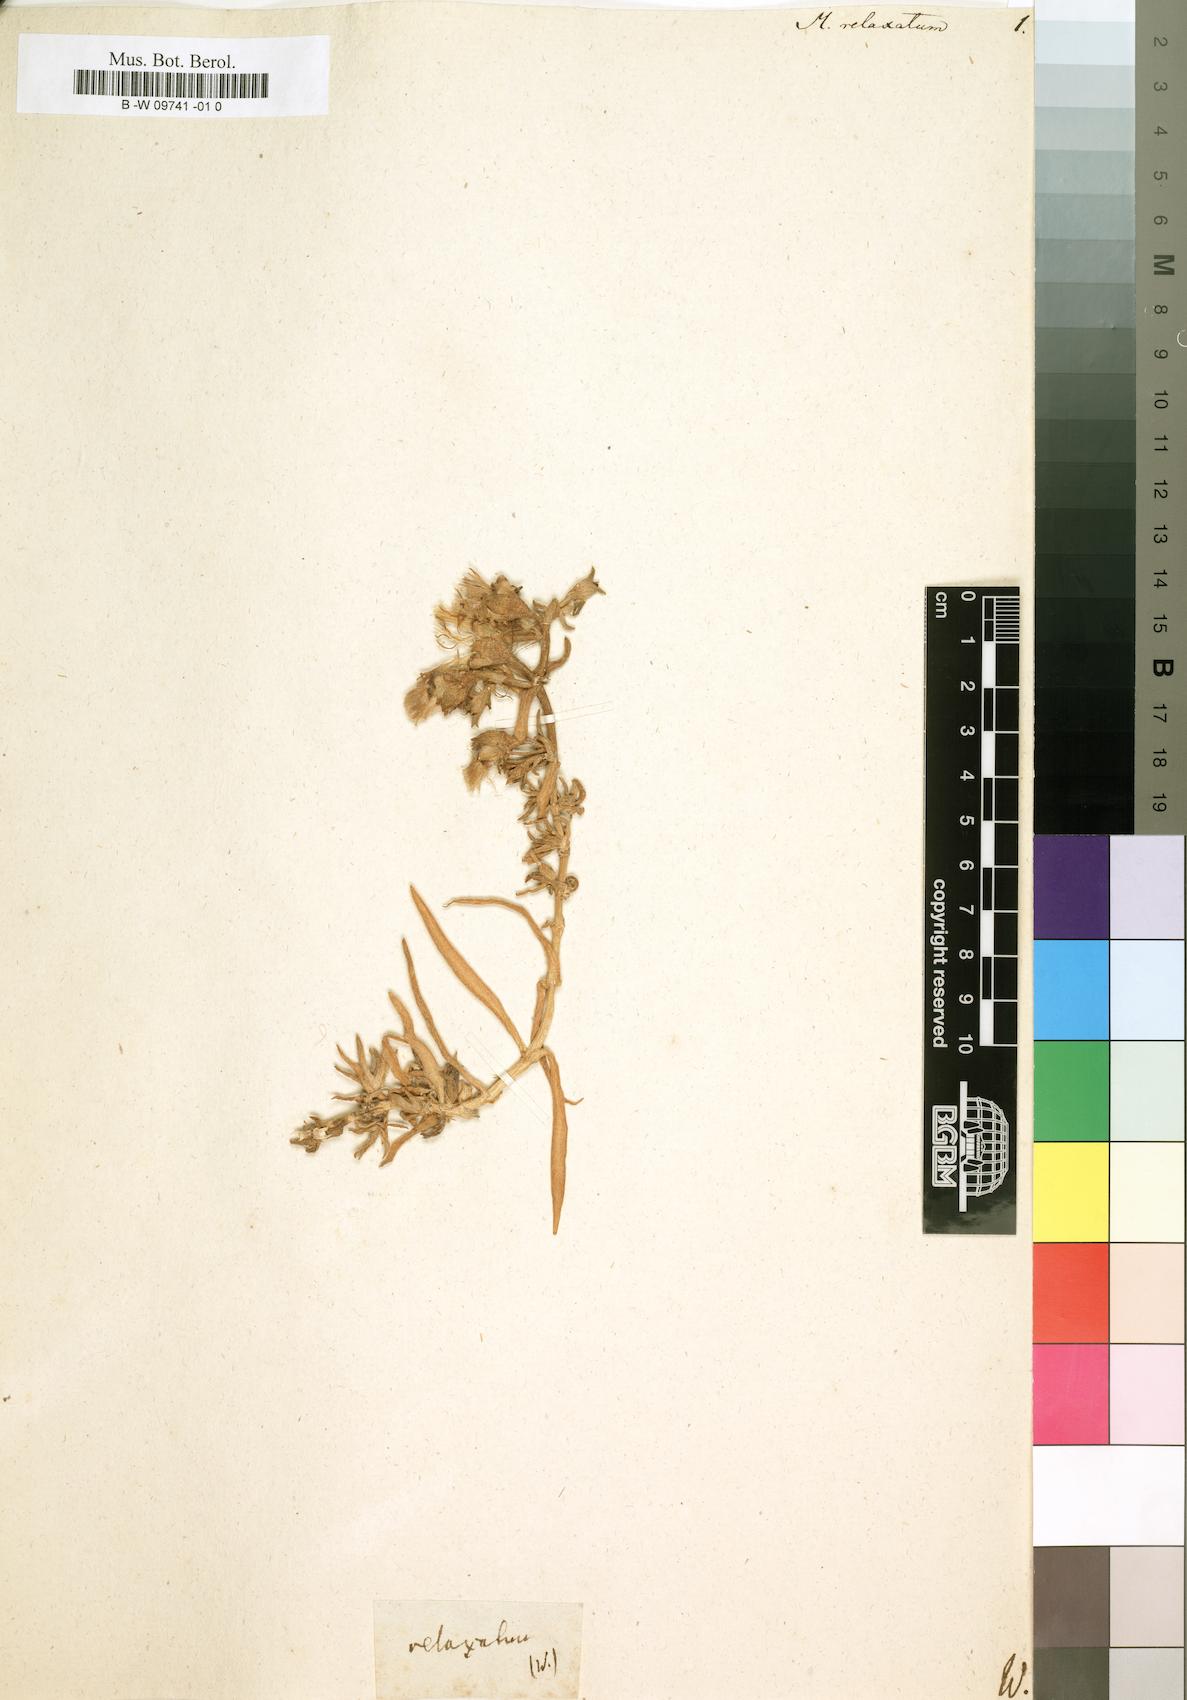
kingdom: Plantae
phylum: Tracheophyta
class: Magnoliopsida
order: Caryophyllales
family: Aizoaceae
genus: Mesembryanthemum
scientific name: Mesembryanthemum pallens
